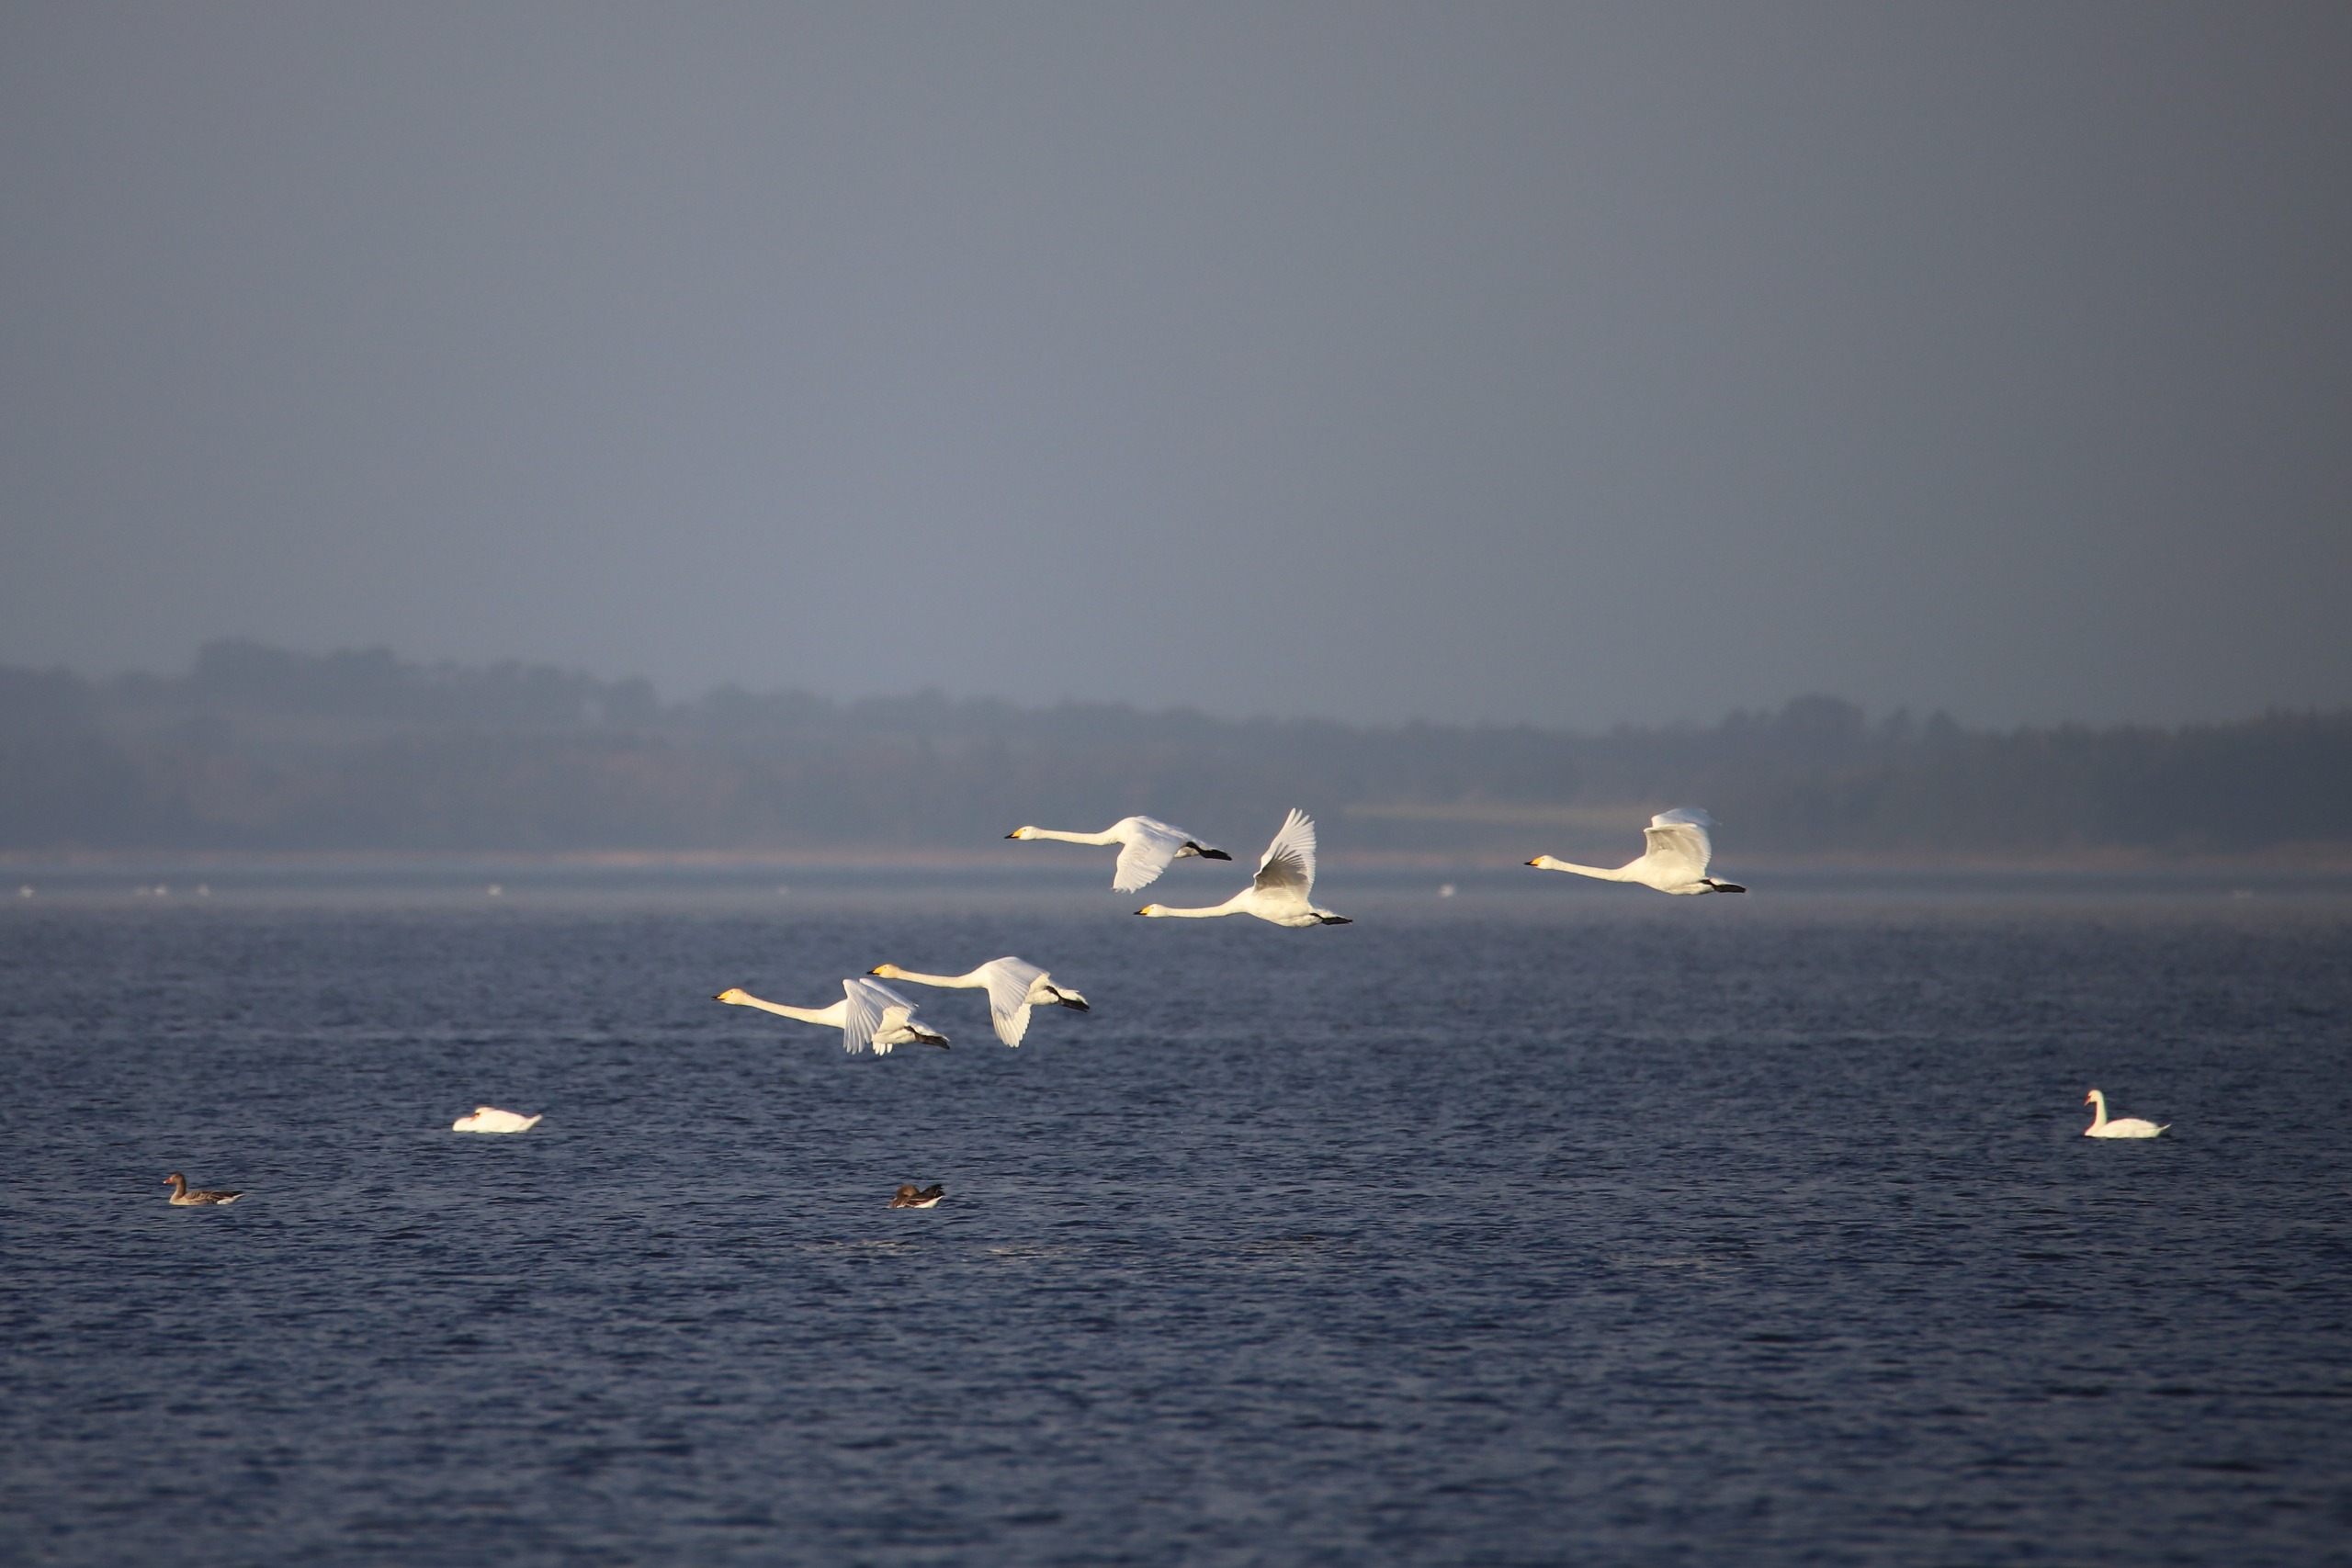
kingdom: Animalia
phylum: Chordata
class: Aves
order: Anseriformes
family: Anatidae
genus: Cygnus
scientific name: Cygnus cygnus
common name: Sangsvane
